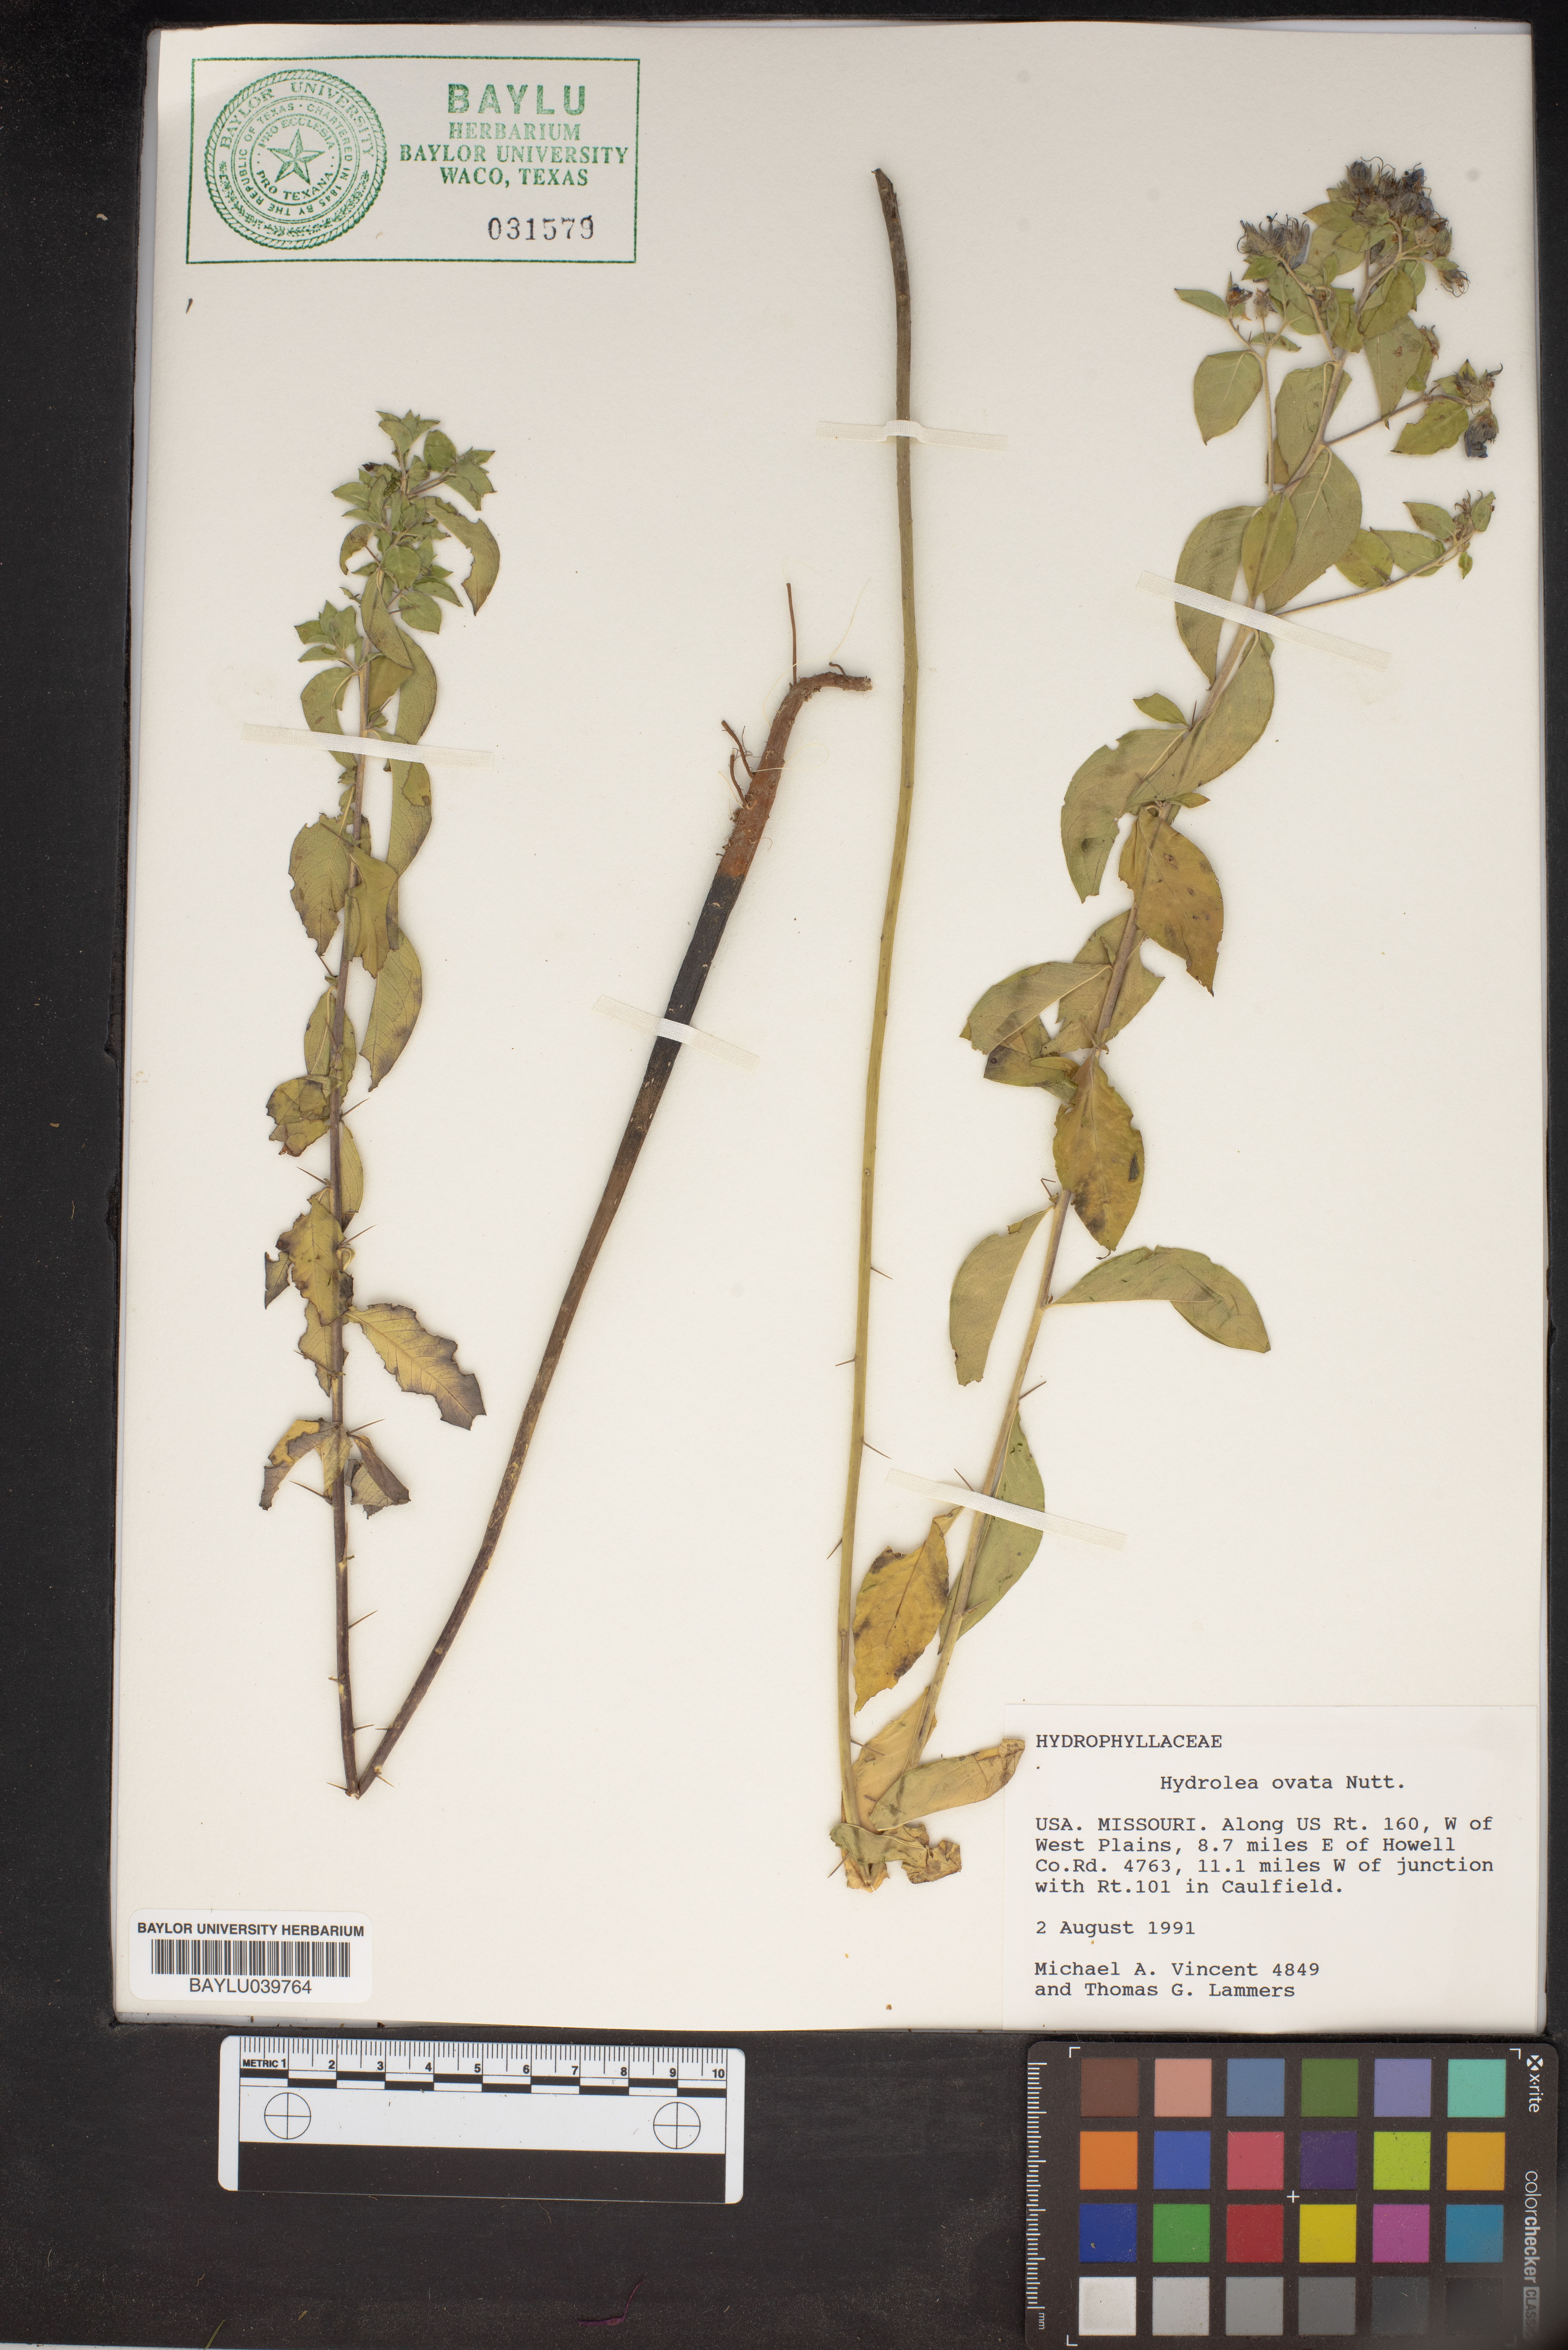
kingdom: Plantae
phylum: Tracheophyta
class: Magnoliopsida
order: Solanales
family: Hydroleaceae
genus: Hydrolea
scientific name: Hydrolea ovata
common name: Ovate false fiddleleaf
